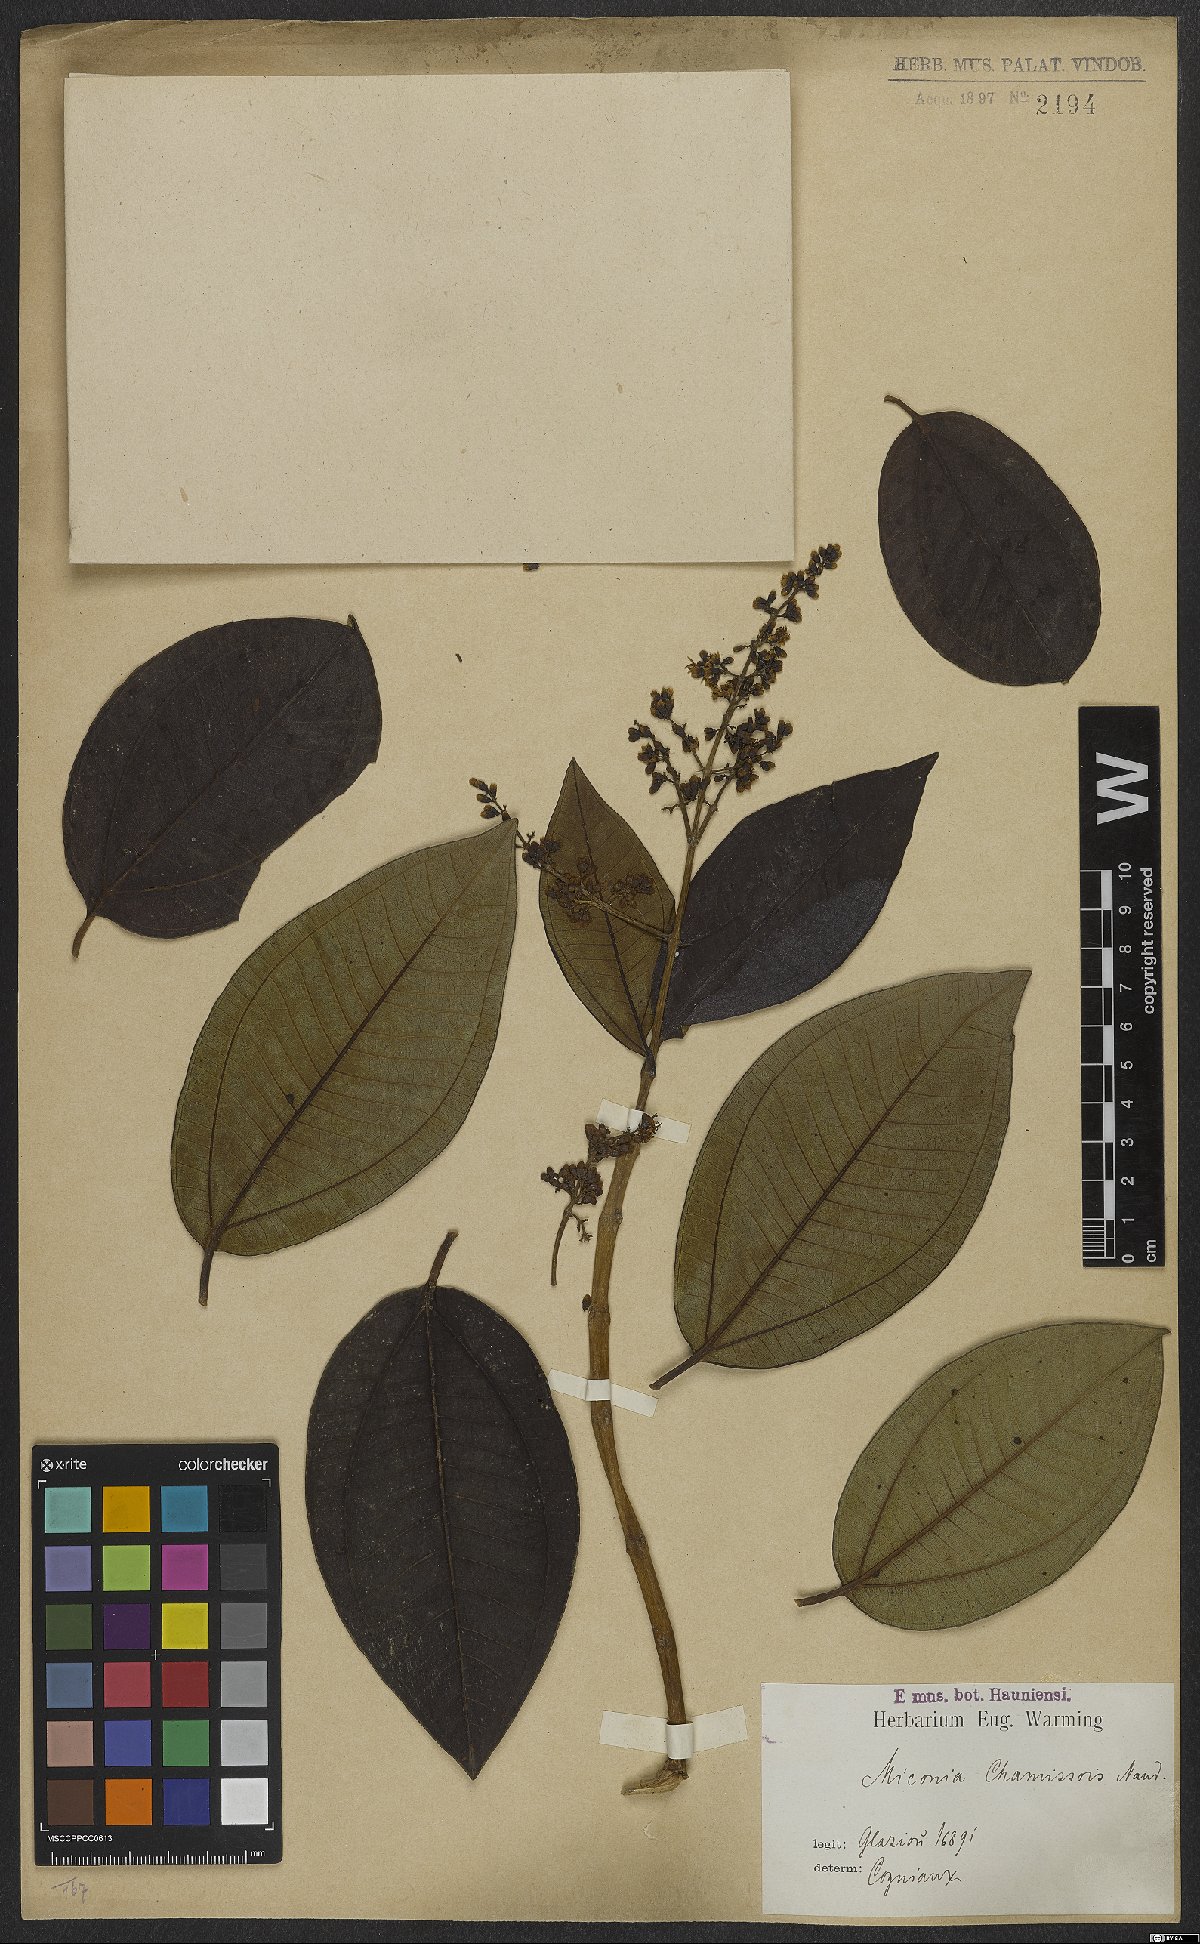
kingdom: Plantae
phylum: Tracheophyta
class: Magnoliopsida
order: Myrtales
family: Melastomataceae
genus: Miconia
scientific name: Miconia chamissois
